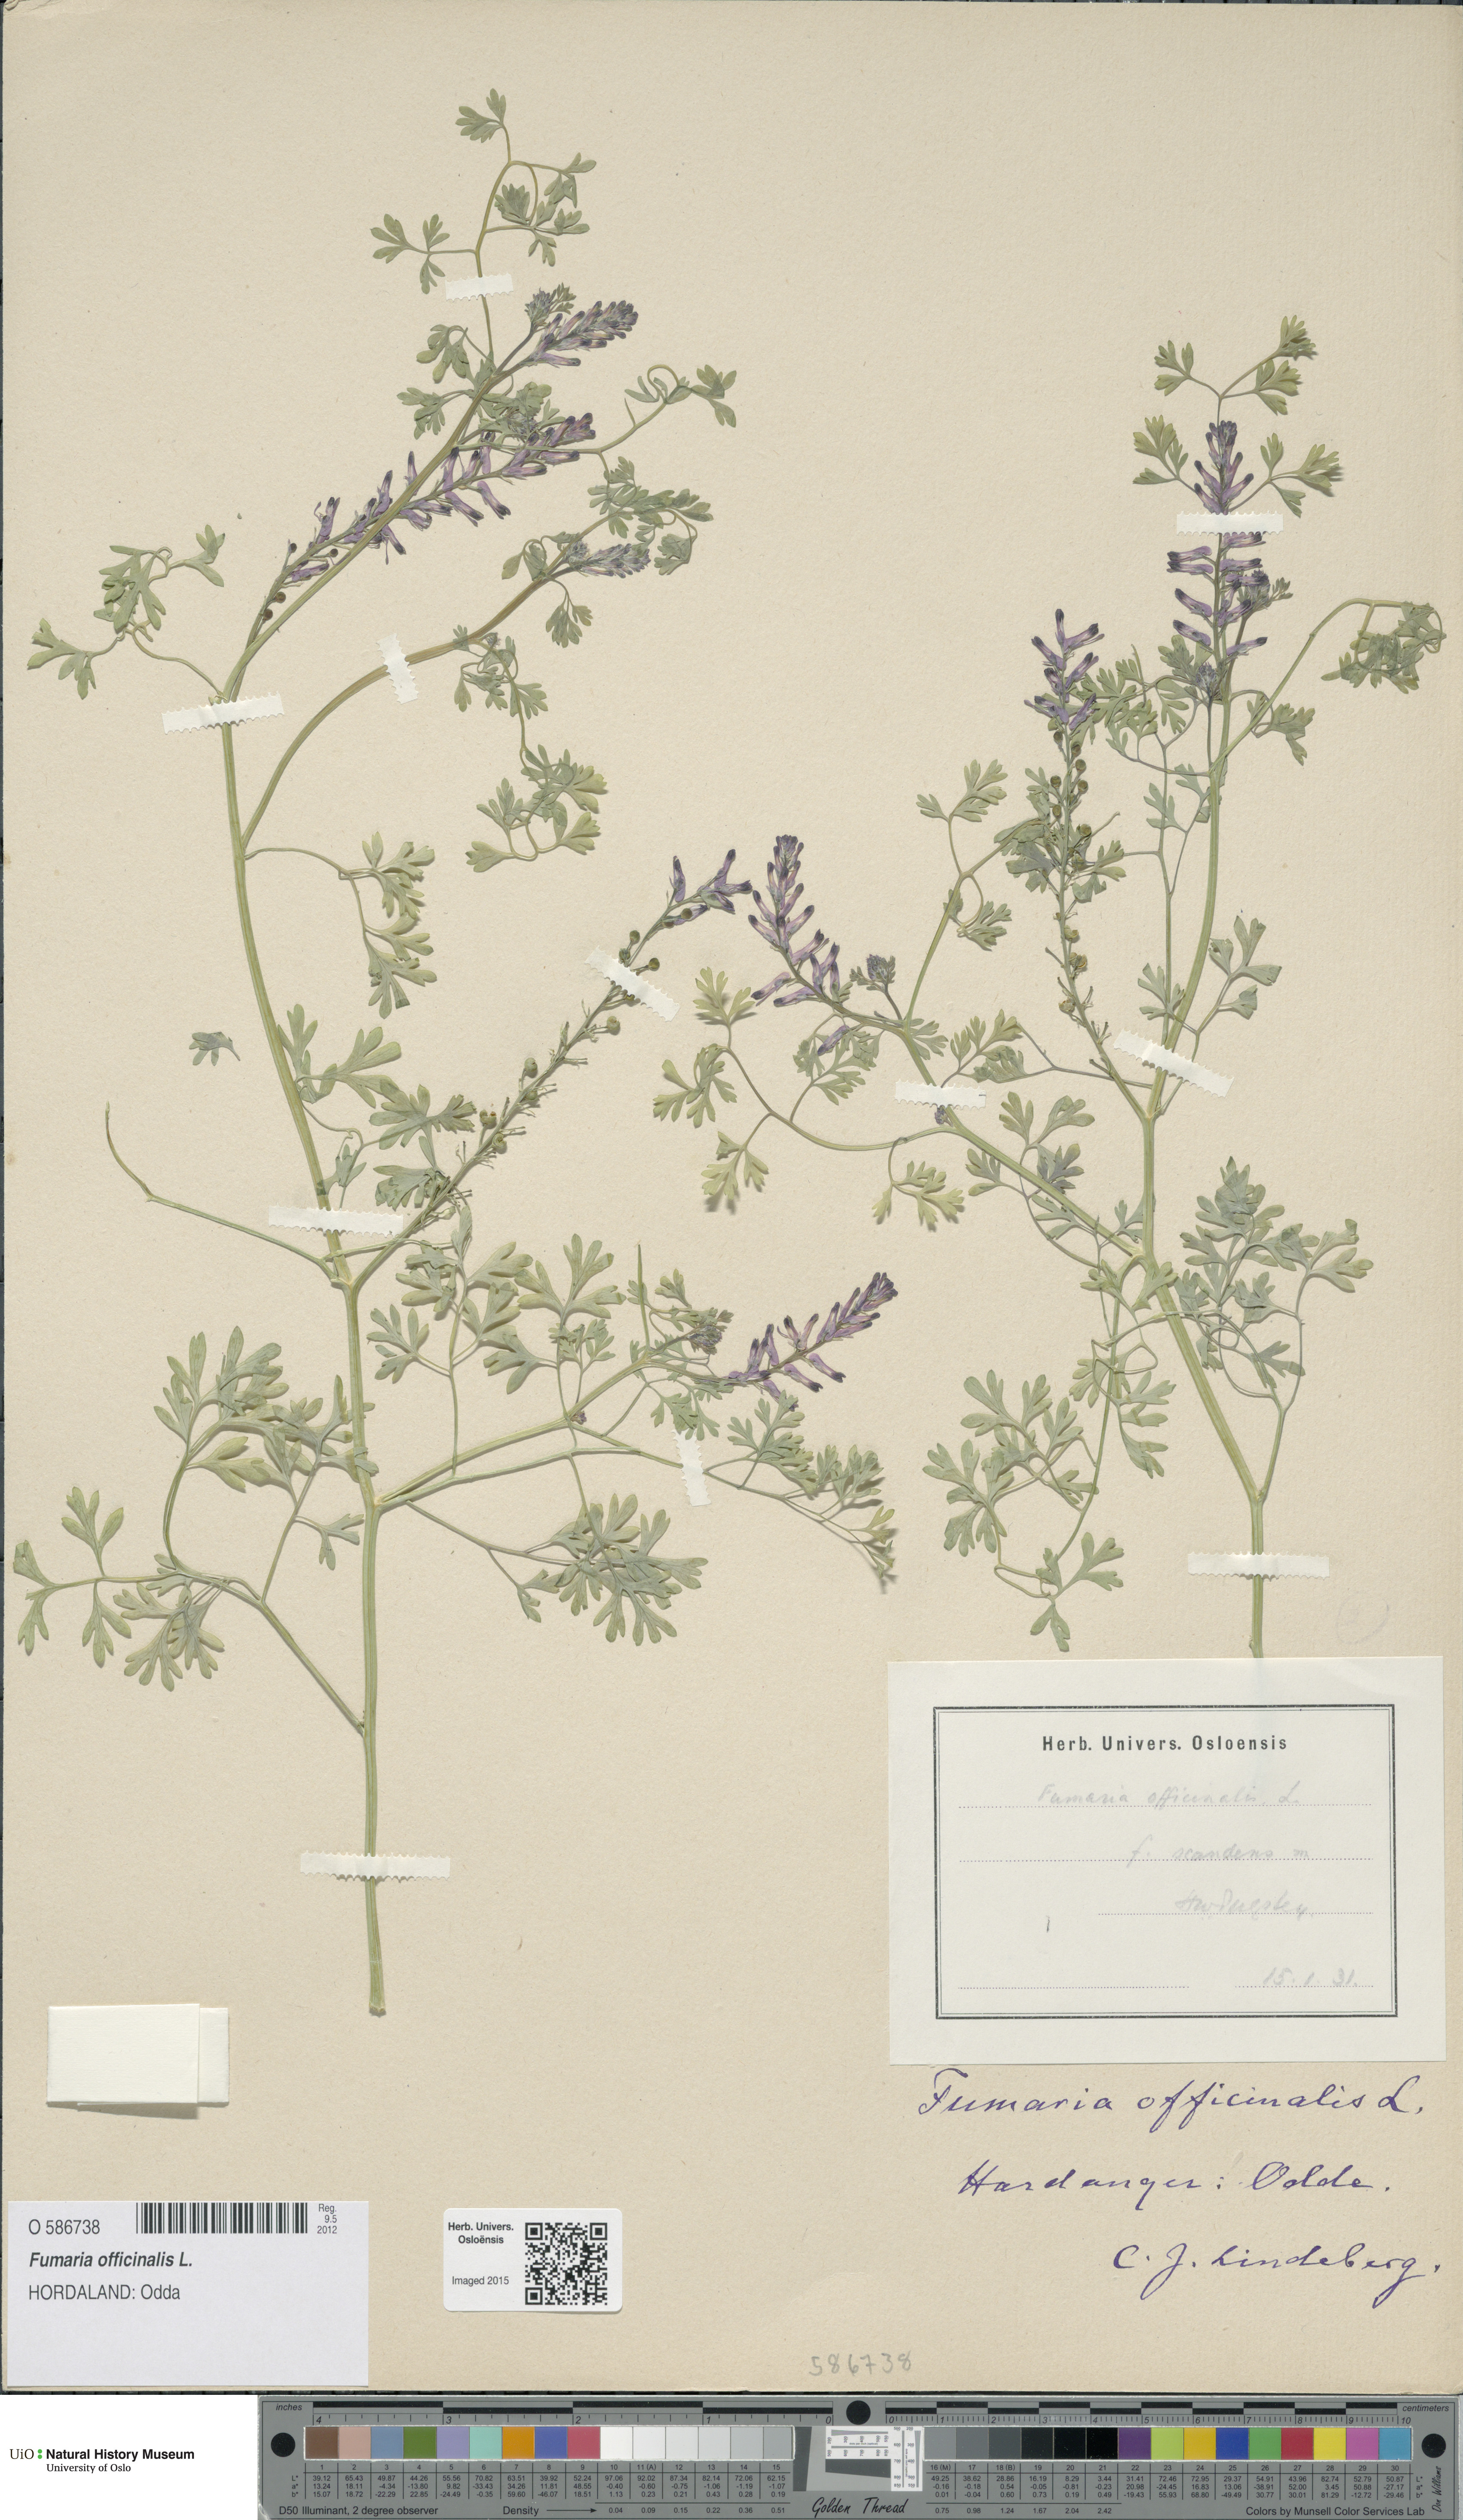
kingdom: Plantae
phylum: Tracheophyta
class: Magnoliopsida
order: Ranunculales
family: Papaveraceae
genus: Fumaria
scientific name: Fumaria officinalis
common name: Common fumitory
